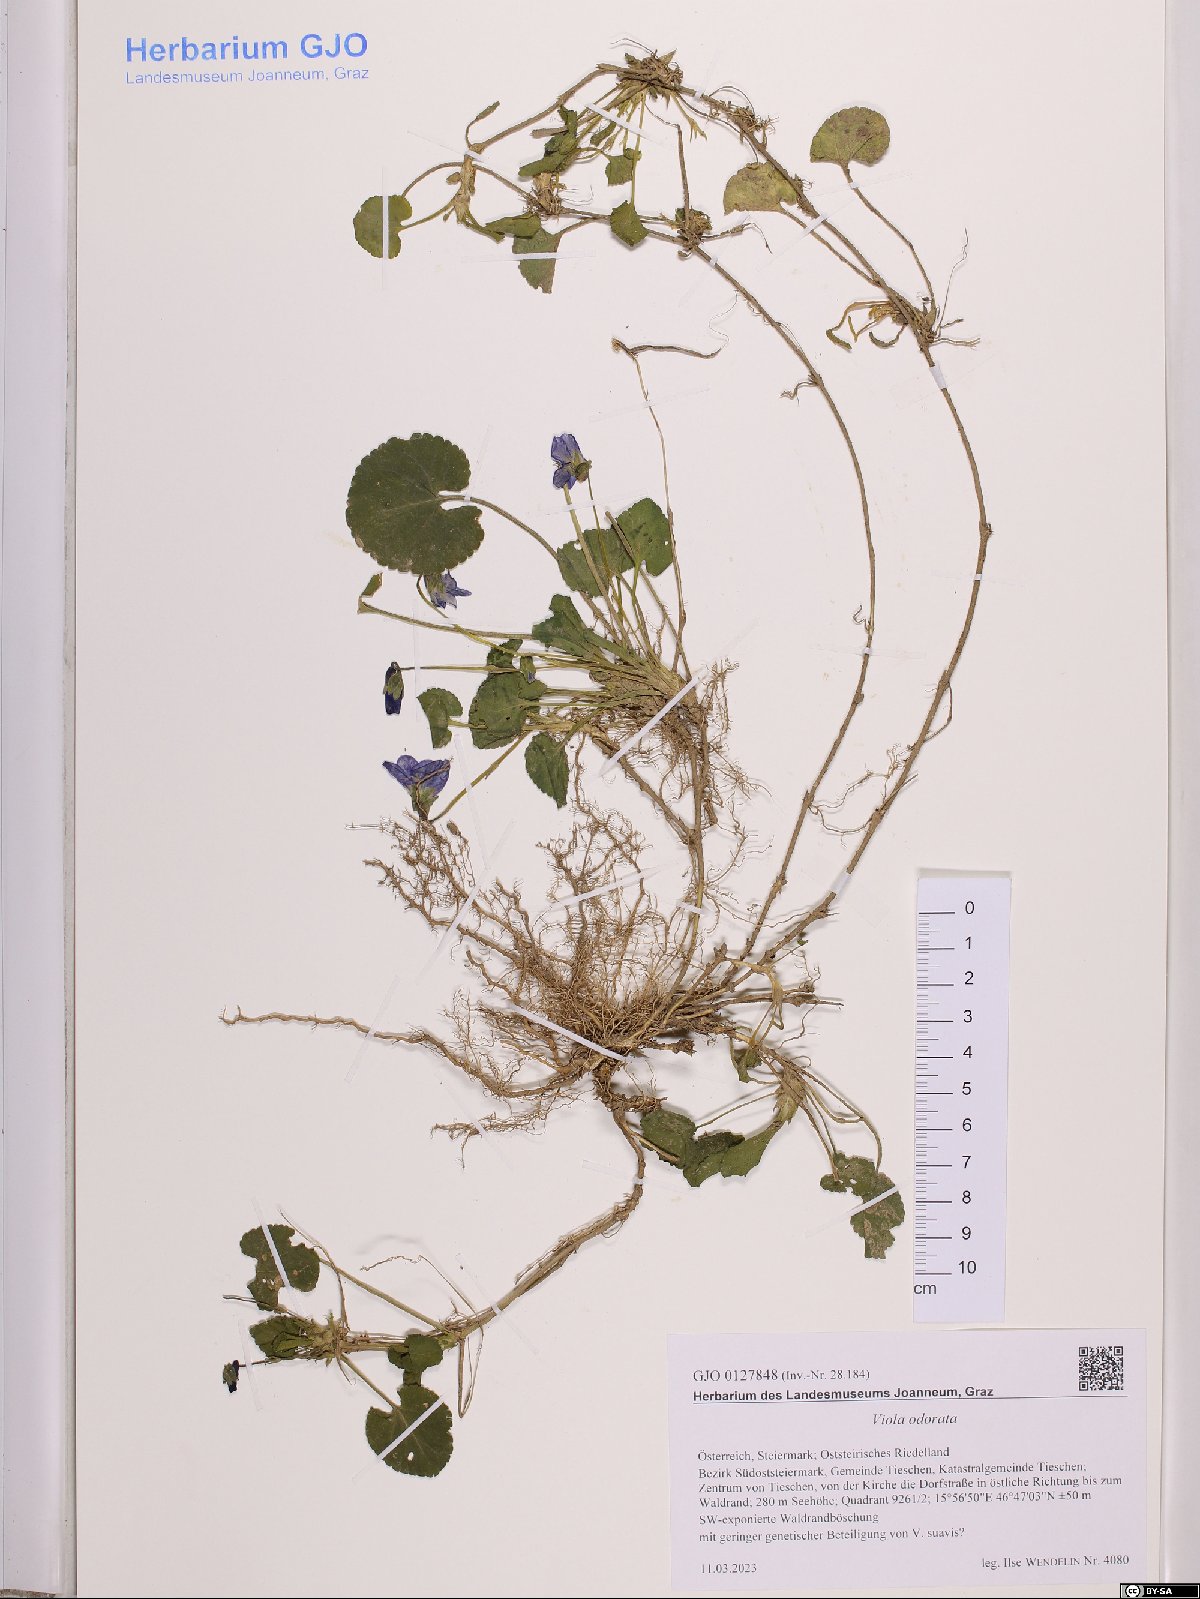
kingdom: Plantae
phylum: Tracheophyta
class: Magnoliopsida
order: Malpighiales
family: Violaceae
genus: Viola
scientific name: Viola reichenbachiana
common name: Early dog-violet
